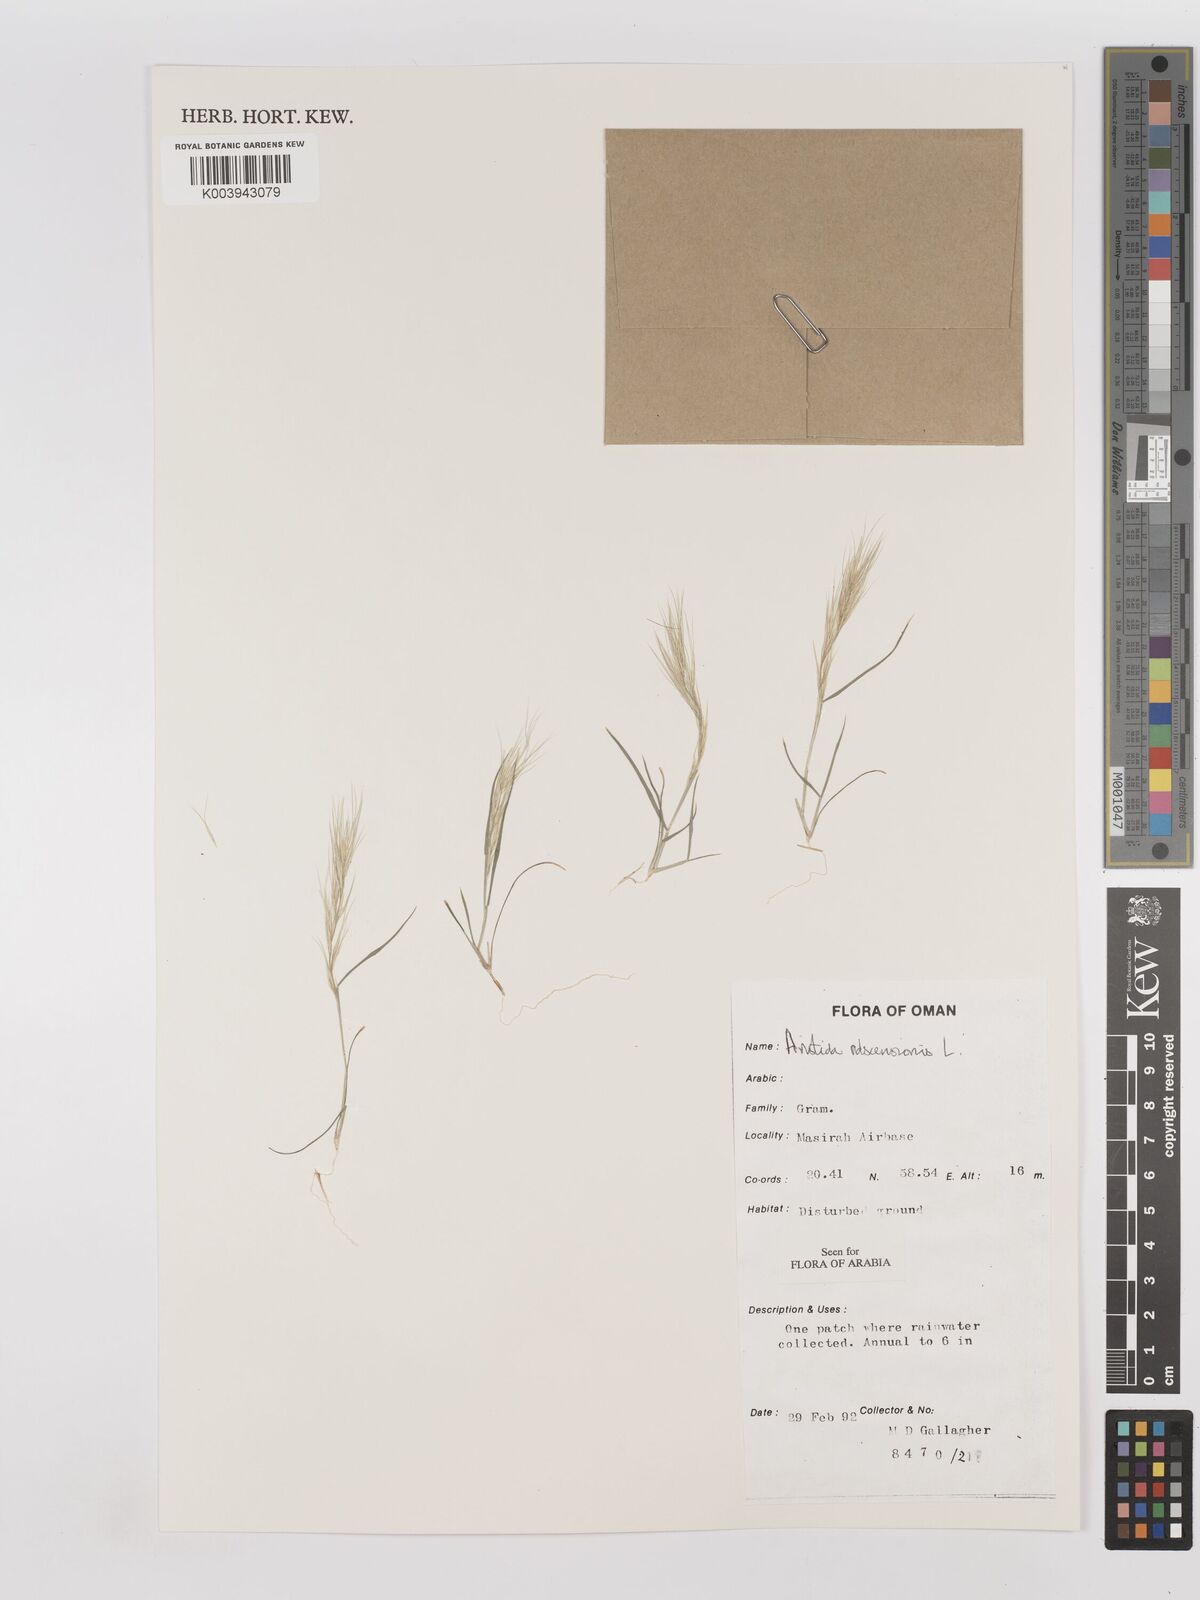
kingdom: Plantae
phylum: Tracheophyta
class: Liliopsida
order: Poales
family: Poaceae
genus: Aristida
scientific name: Aristida adscensionis
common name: Sixweeks threeawn
